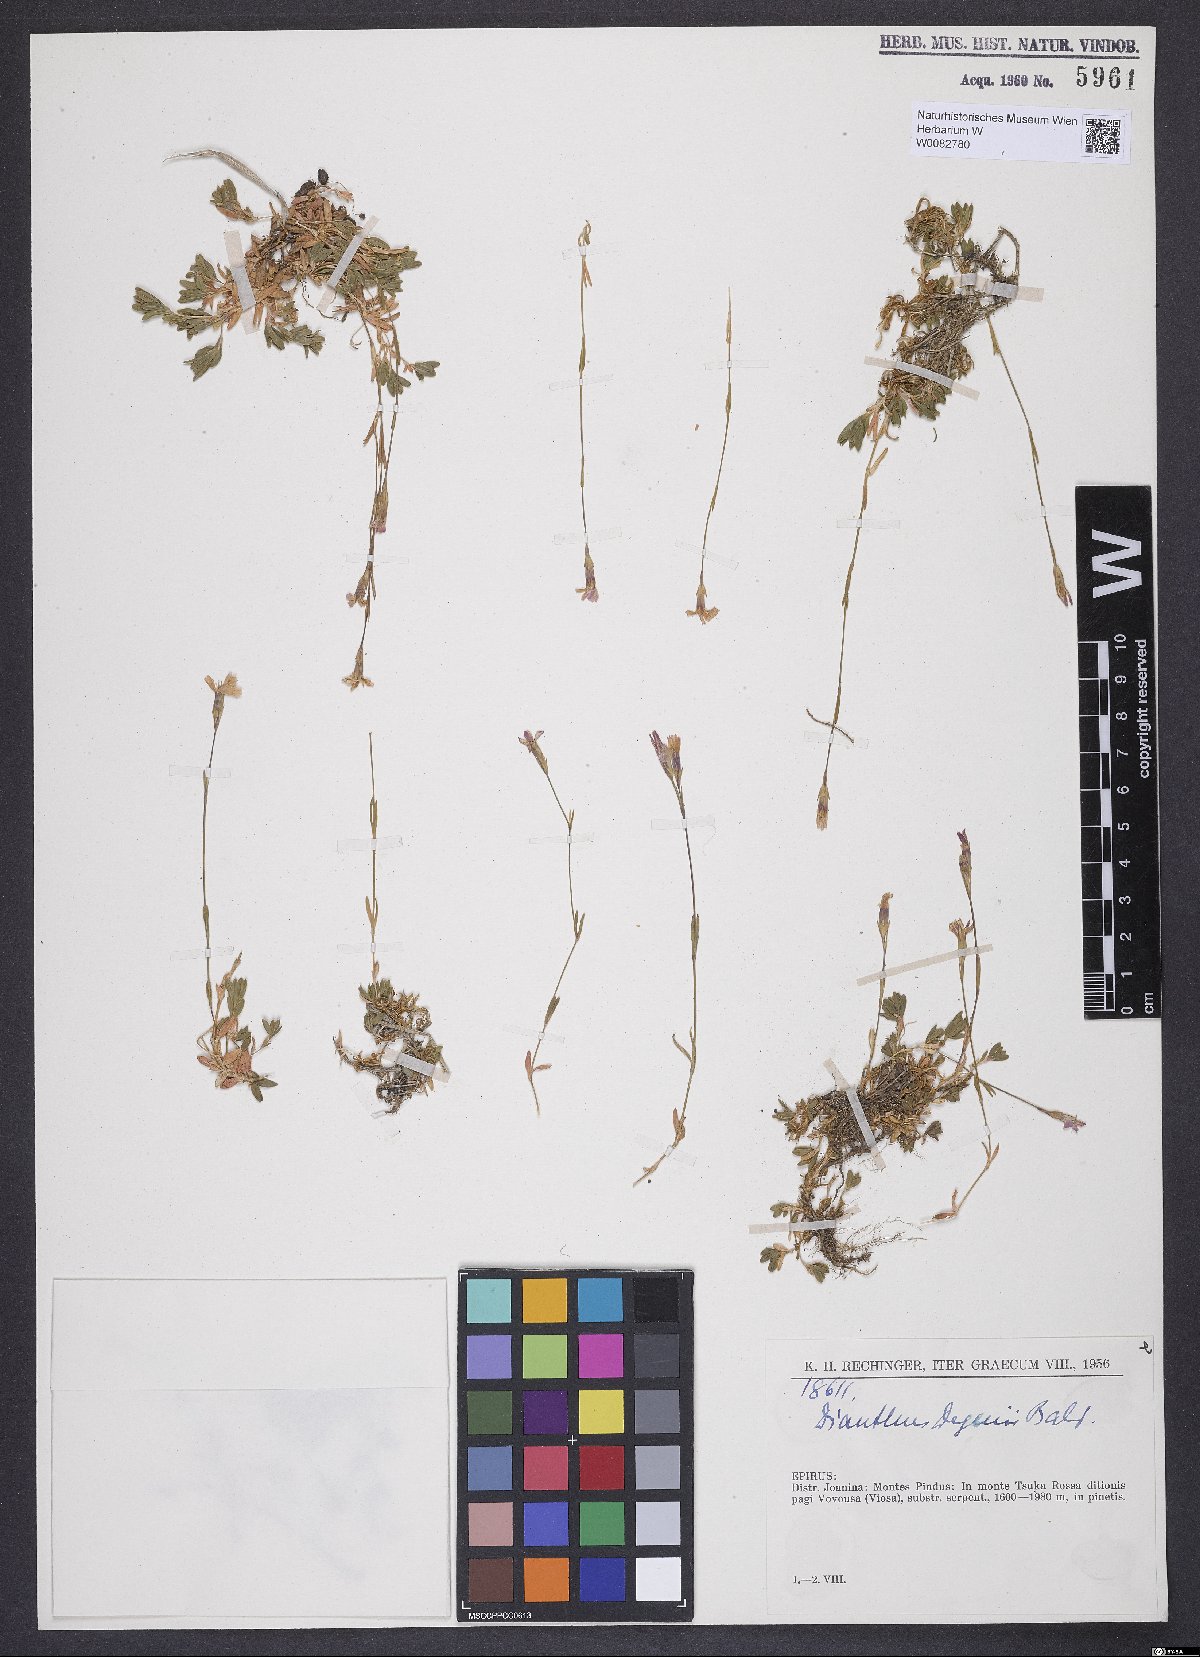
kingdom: Plantae
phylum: Tracheophyta
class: Magnoliopsida
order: Caryophyllales
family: Caryophyllaceae
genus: Dianthus
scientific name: Dianthus deltoides
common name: Maiden pink
